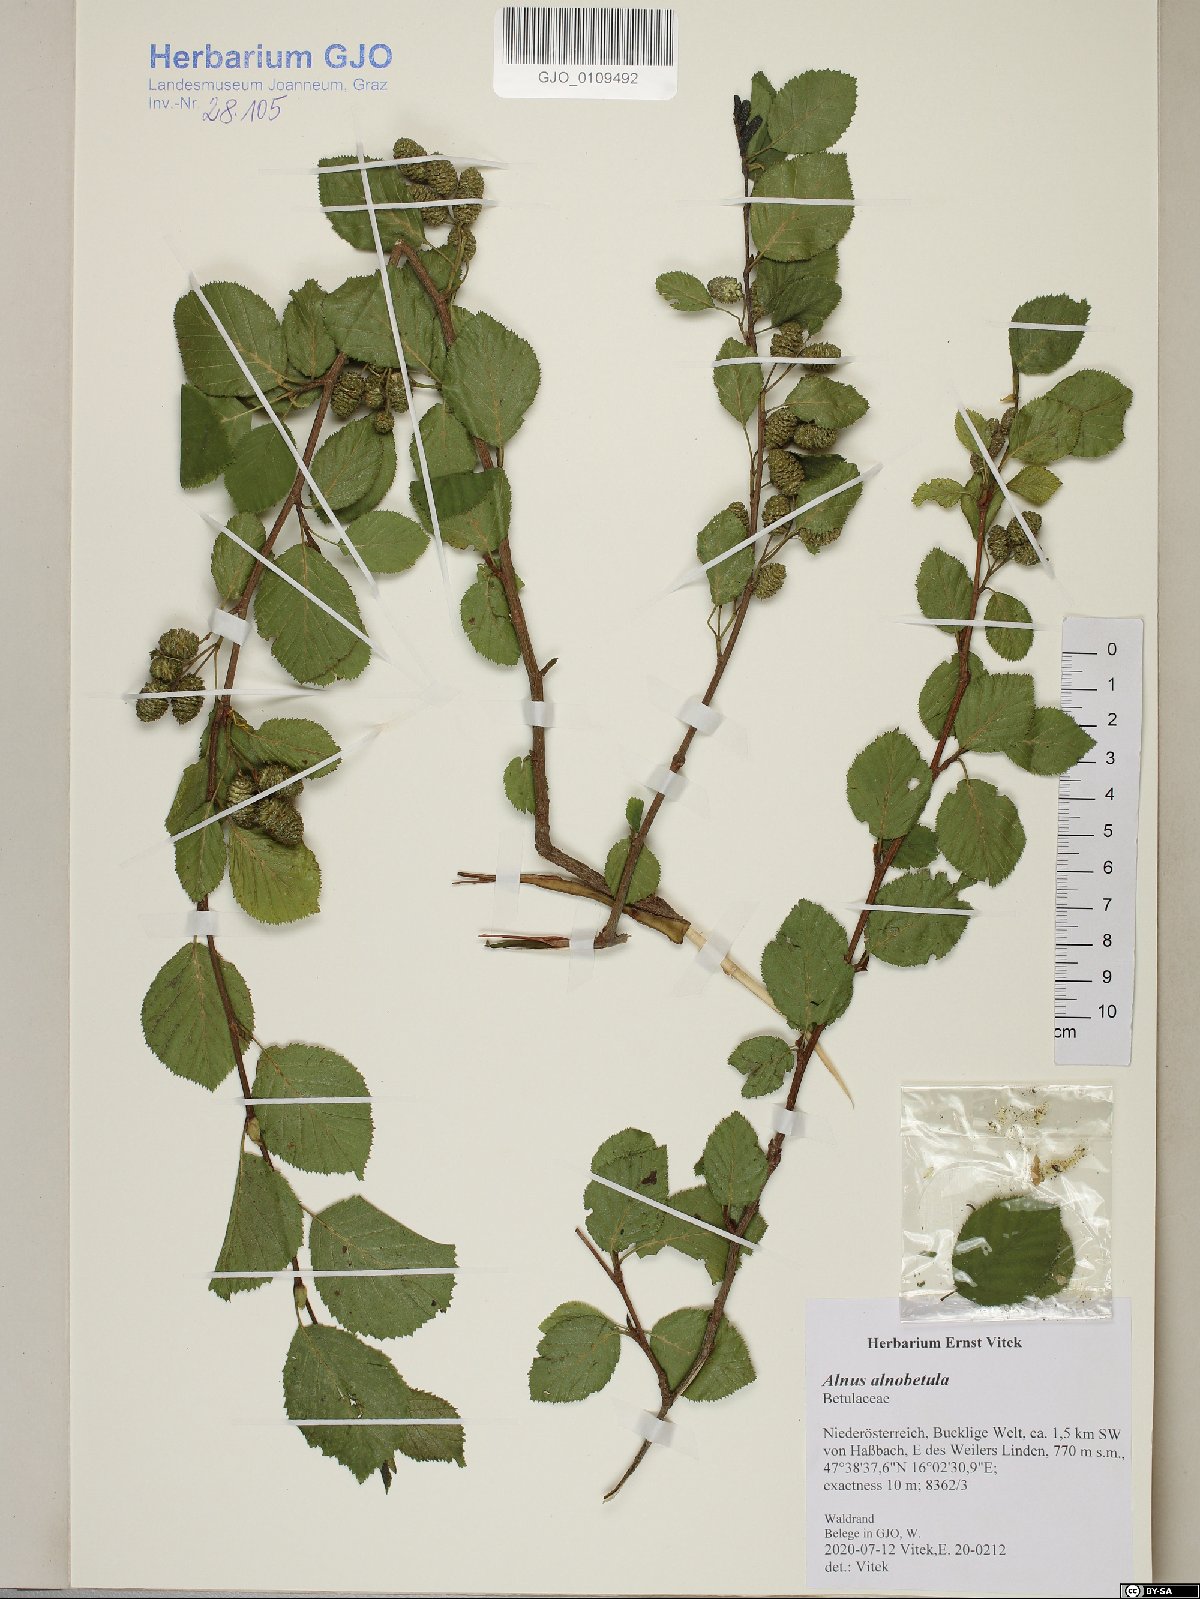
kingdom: Plantae
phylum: Tracheophyta
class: Magnoliopsida
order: Fagales
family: Betulaceae
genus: Alnus
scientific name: Alnus alnobetula
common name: Green alder
